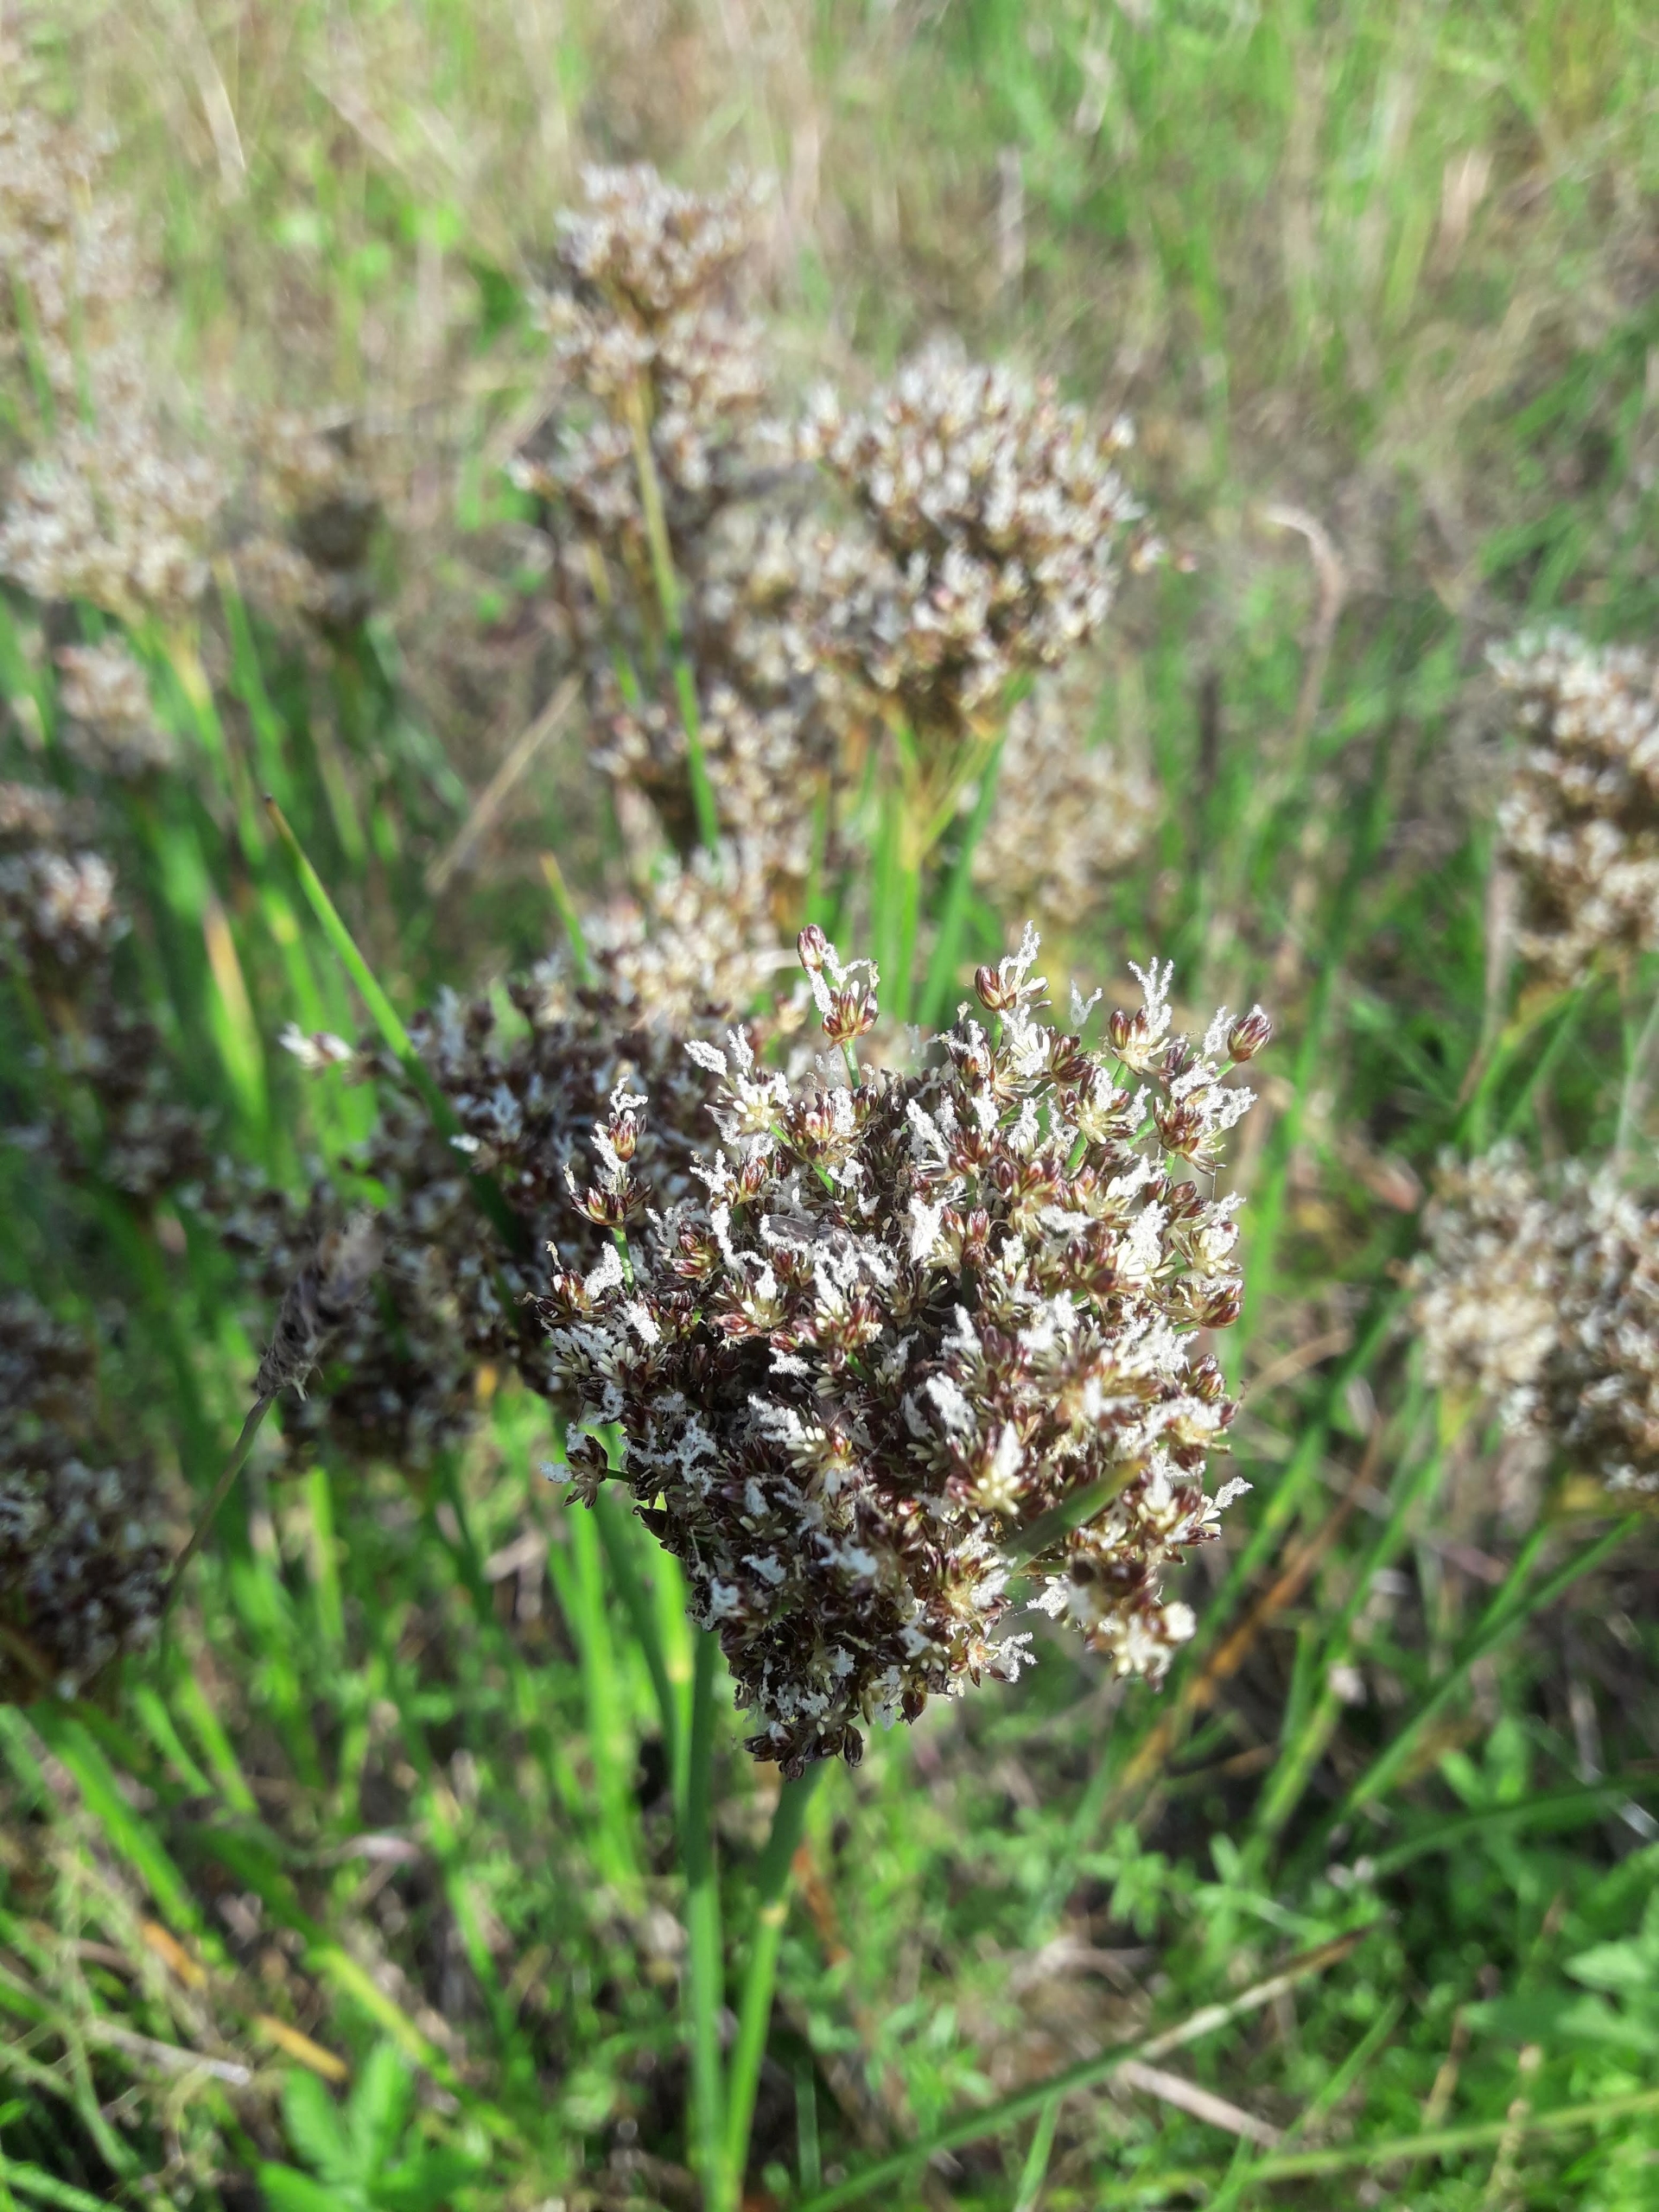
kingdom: Plantae
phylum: Tracheophyta
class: Liliopsida
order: Poales
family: Juncaceae
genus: Juncus
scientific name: Juncus anceps
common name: Sand-siv
